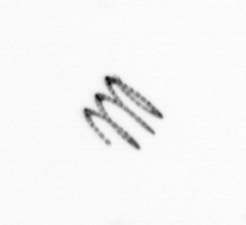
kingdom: Chromista
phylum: Ochrophyta
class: Bacillariophyceae
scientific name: Bacillariophyceae
